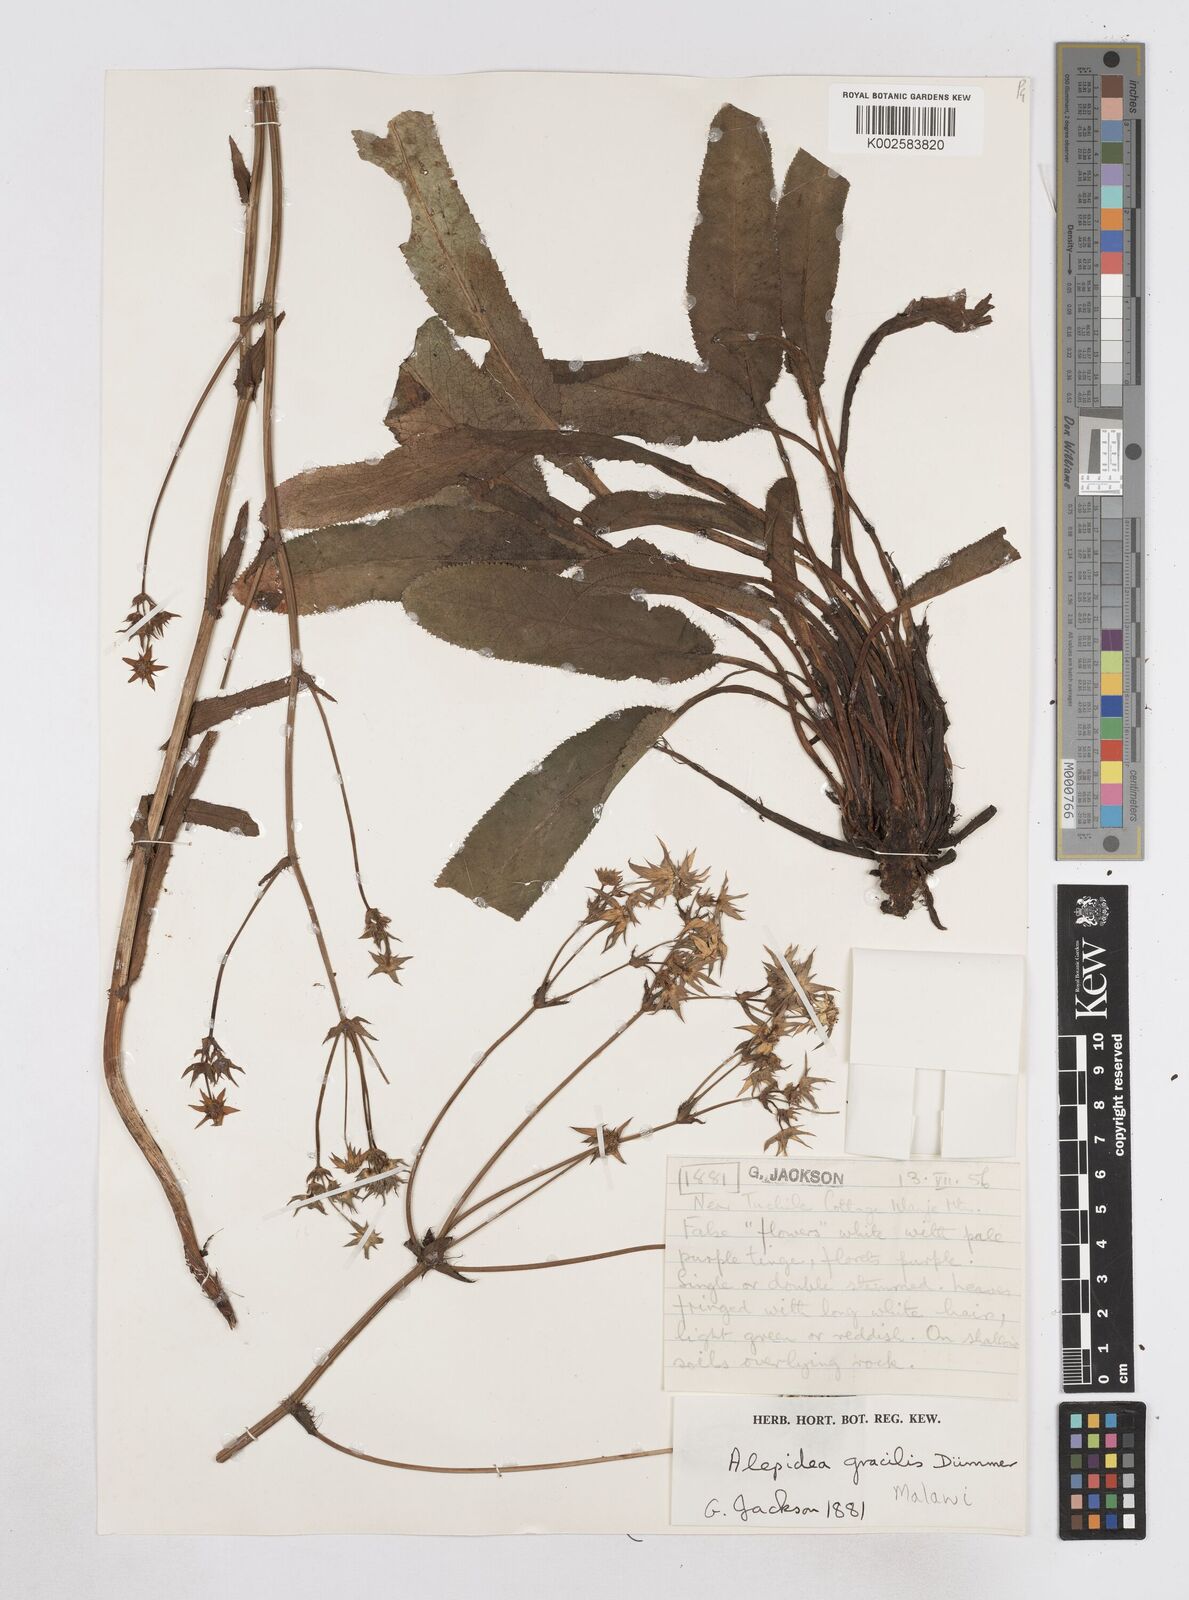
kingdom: Plantae
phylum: Tracheophyta
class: Magnoliopsida
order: Apiales
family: Apiaceae
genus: Alepidea
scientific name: Alepidea peduncularis
